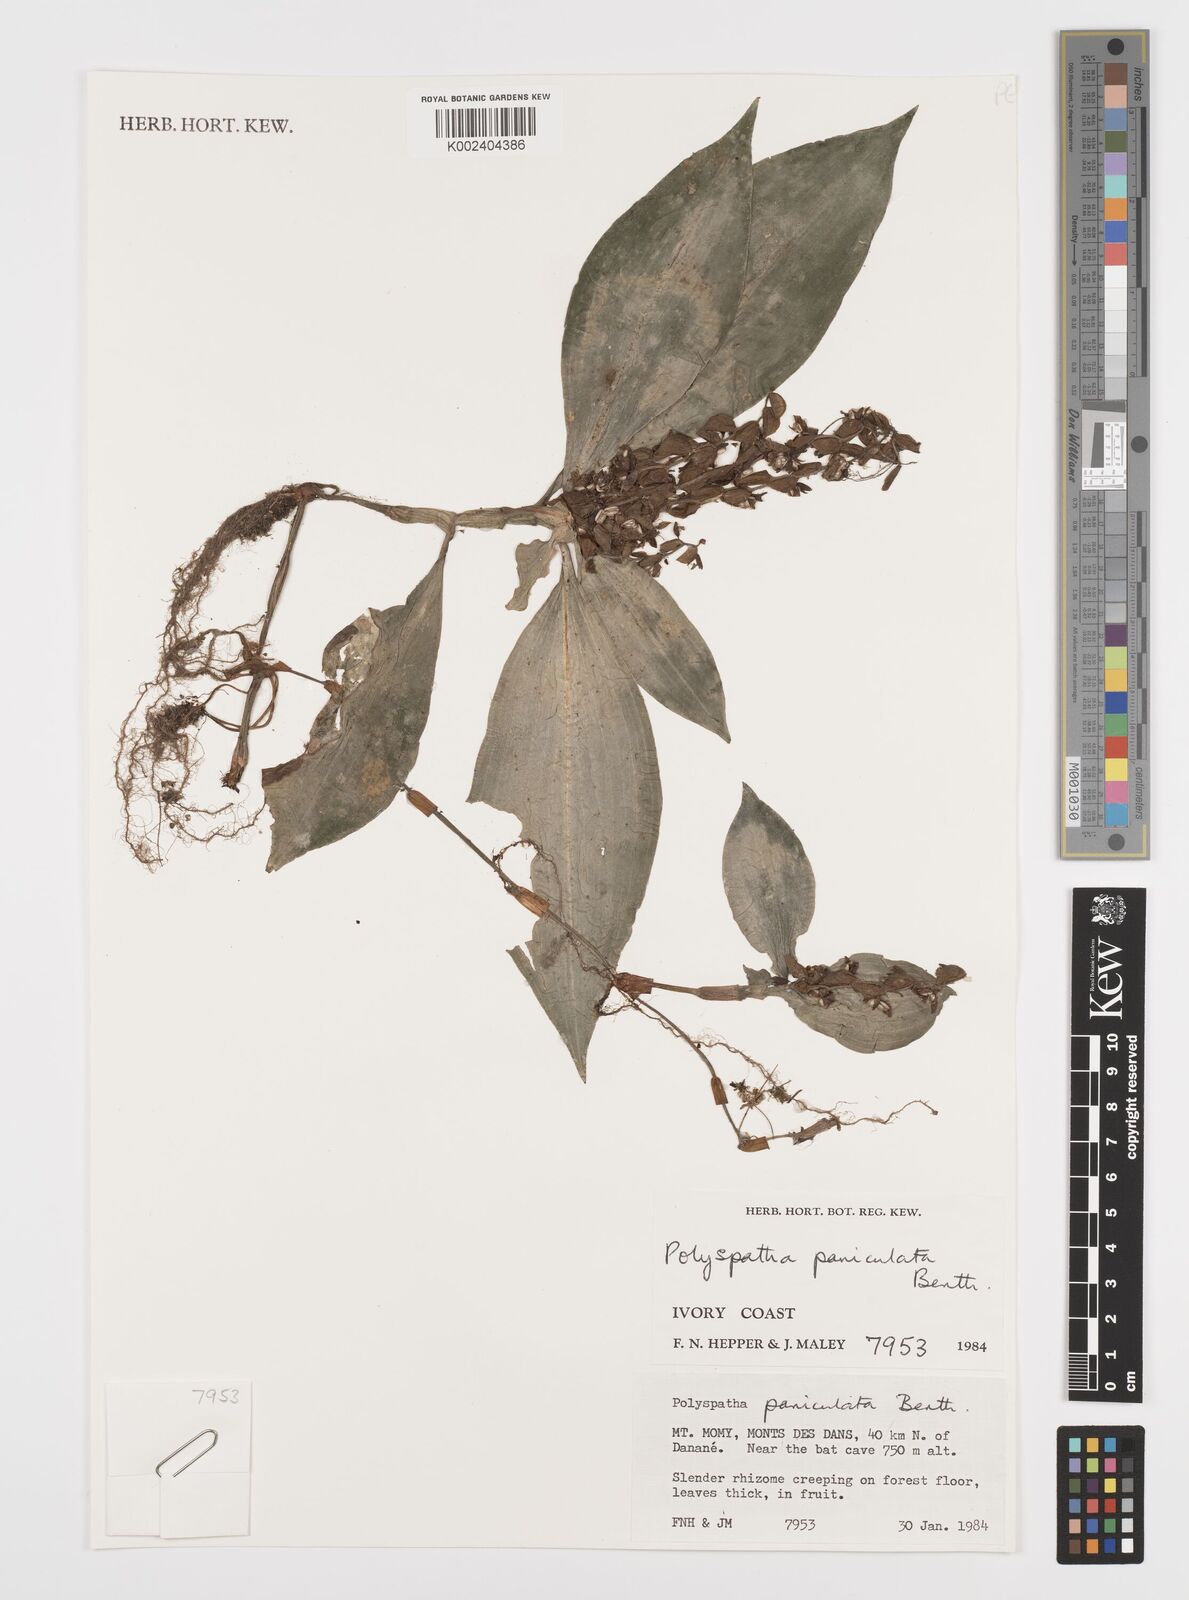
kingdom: Plantae
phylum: Tracheophyta
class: Liliopsida
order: Commelinales
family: Commelinaceae
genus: Polyspatha
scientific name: Polyspatha paniculata
